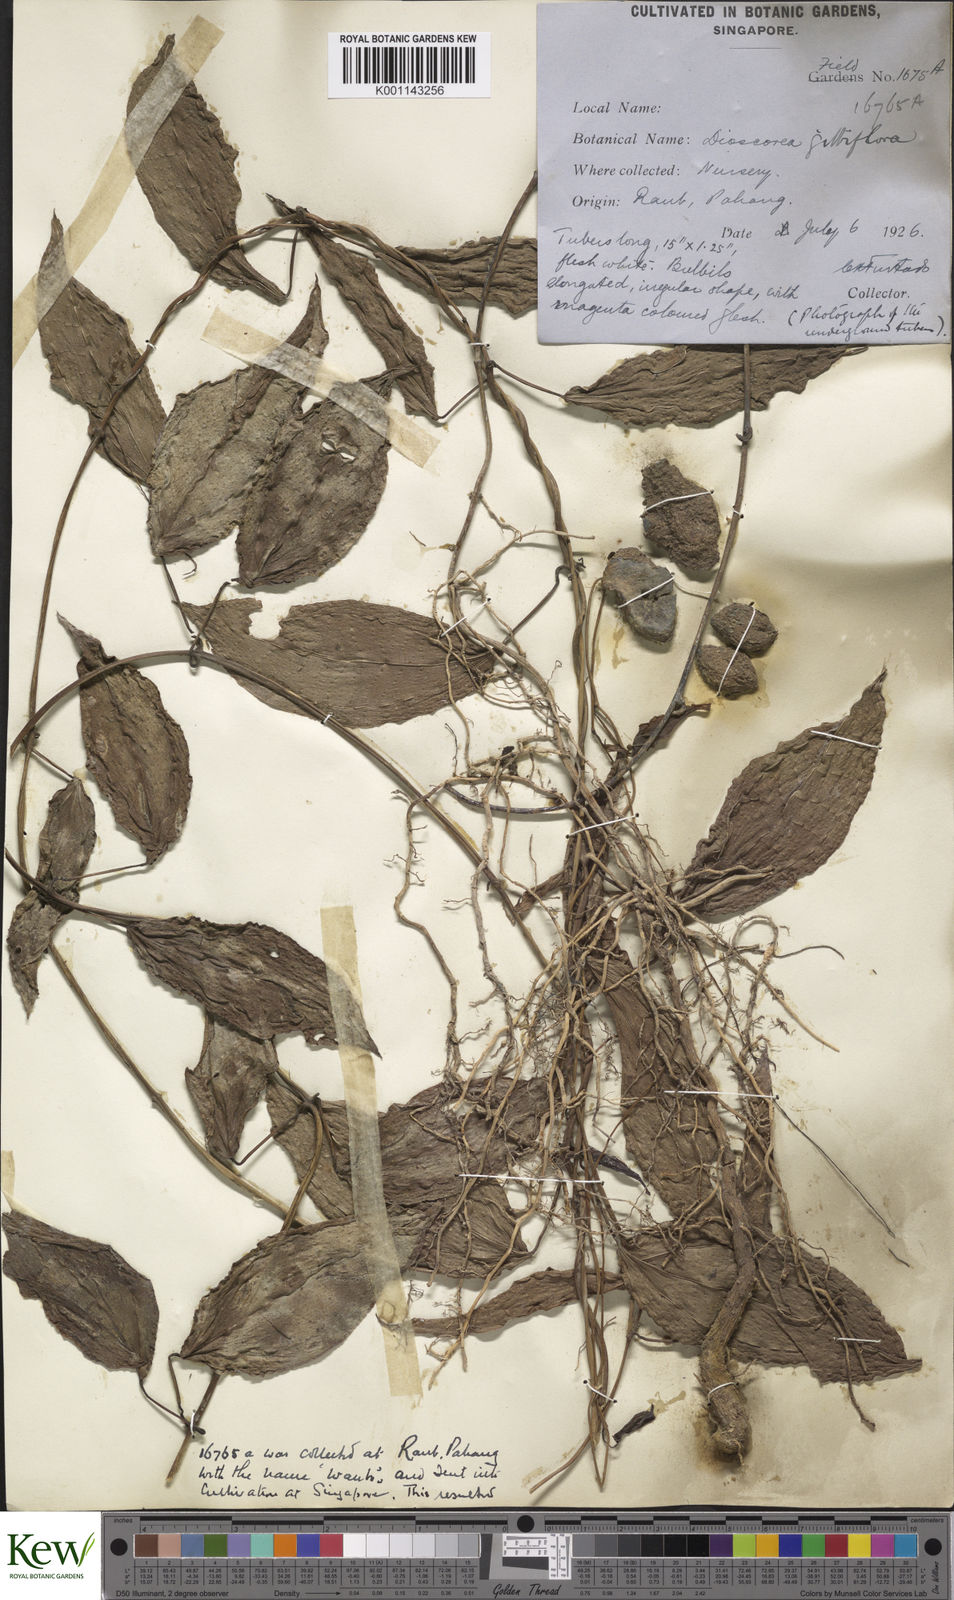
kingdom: Plantae
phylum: Tracheophyta
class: Liliopsida
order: Dioscoreales
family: Dioscoreaceae
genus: Dioscorea
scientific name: Dioscorea filiformis
